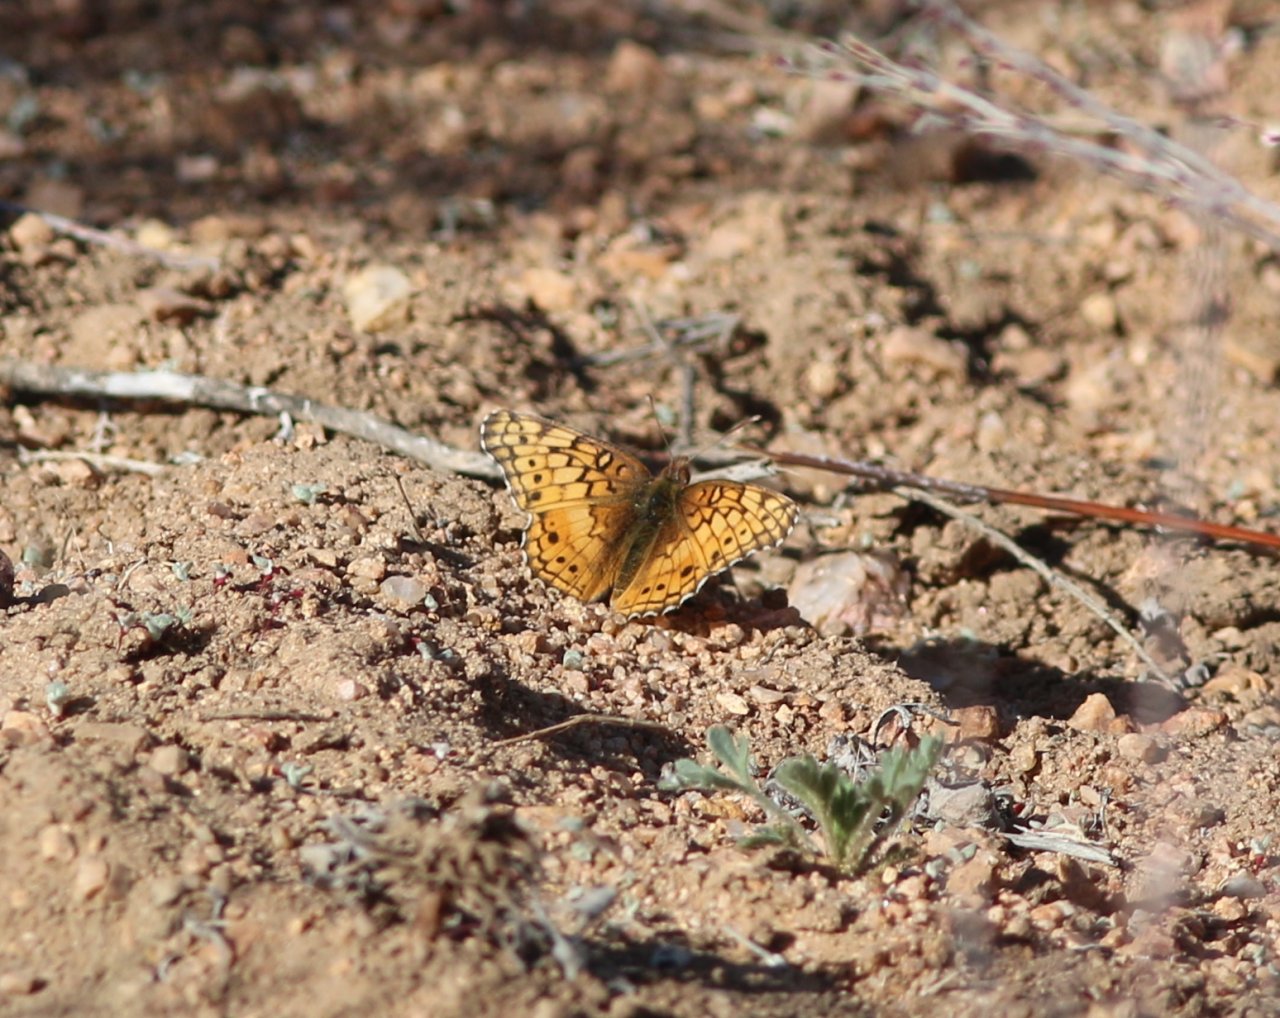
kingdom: Animalia
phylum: Arthropoda
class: Insecta
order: Lepidoptera
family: Nymphalidae
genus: Euptoieta
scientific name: Euptoieta claudia
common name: Variegated Fritillary
